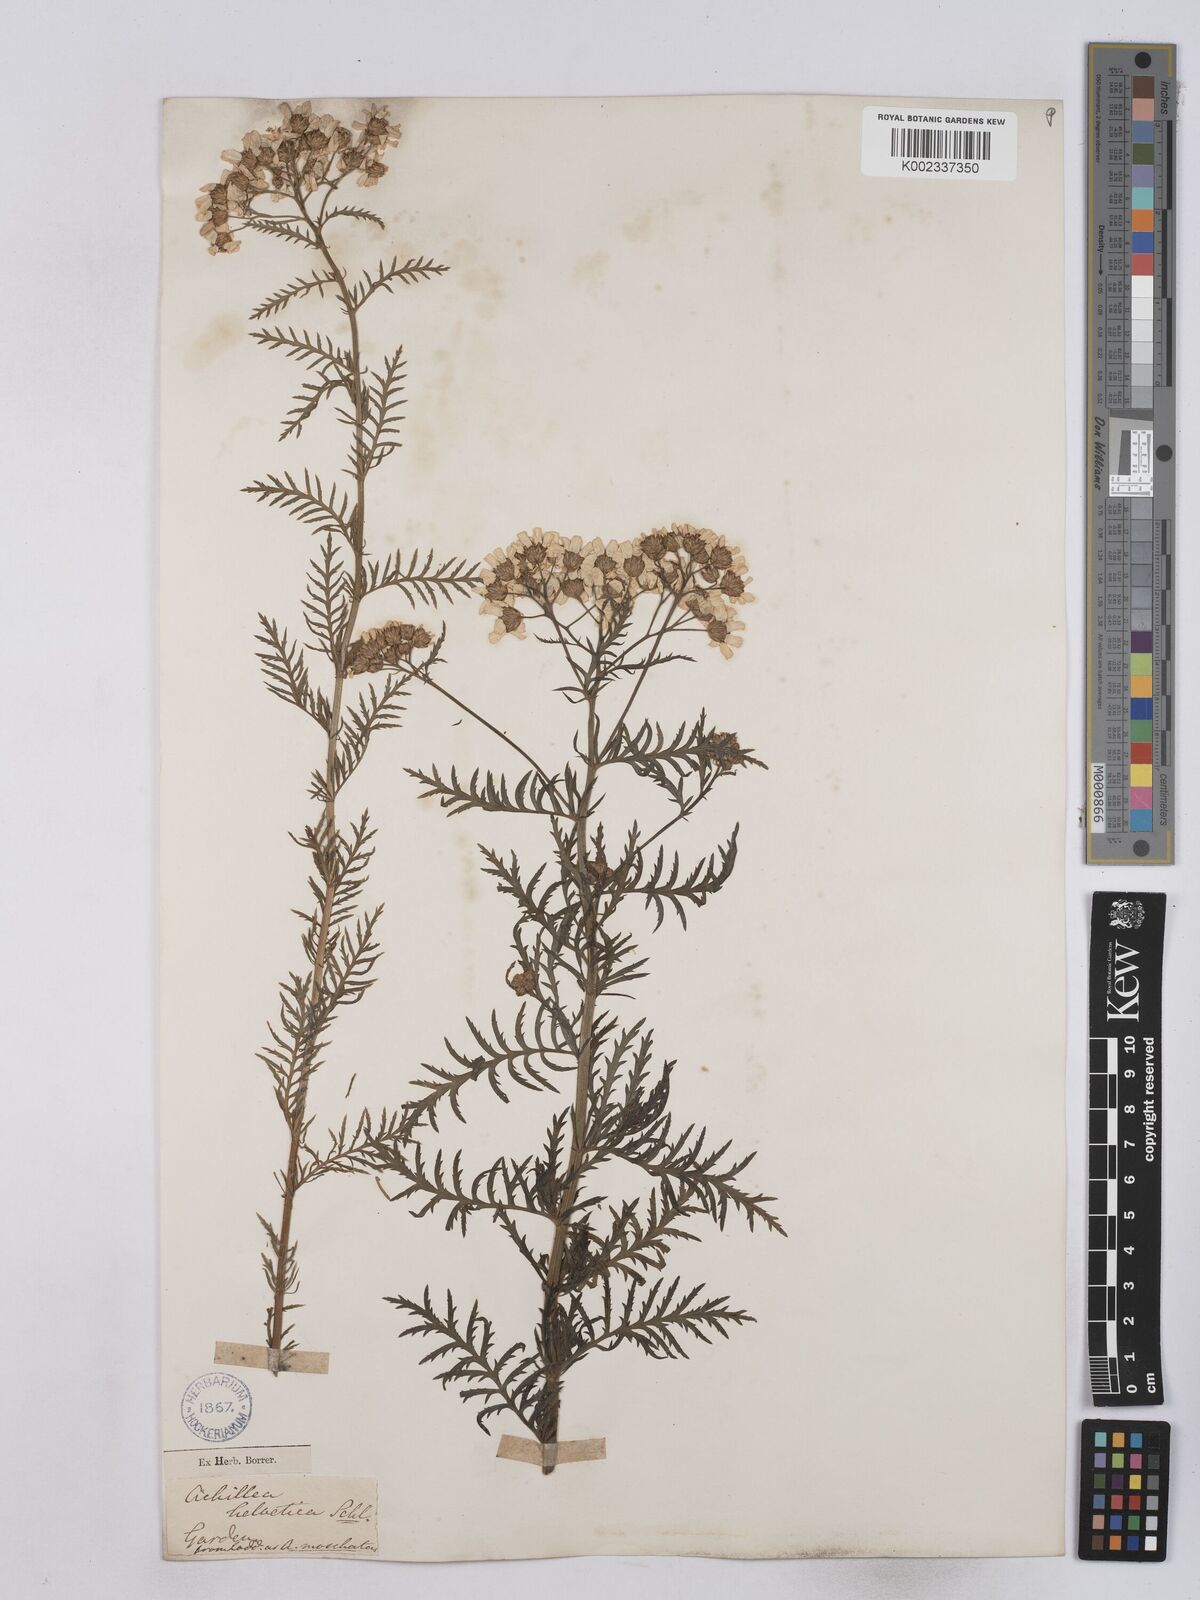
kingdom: Plantae
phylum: Tracheophyta
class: Magnoliopsida
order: Asterales
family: Asteraceae
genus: Achillea
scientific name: Achillea valesiaca
